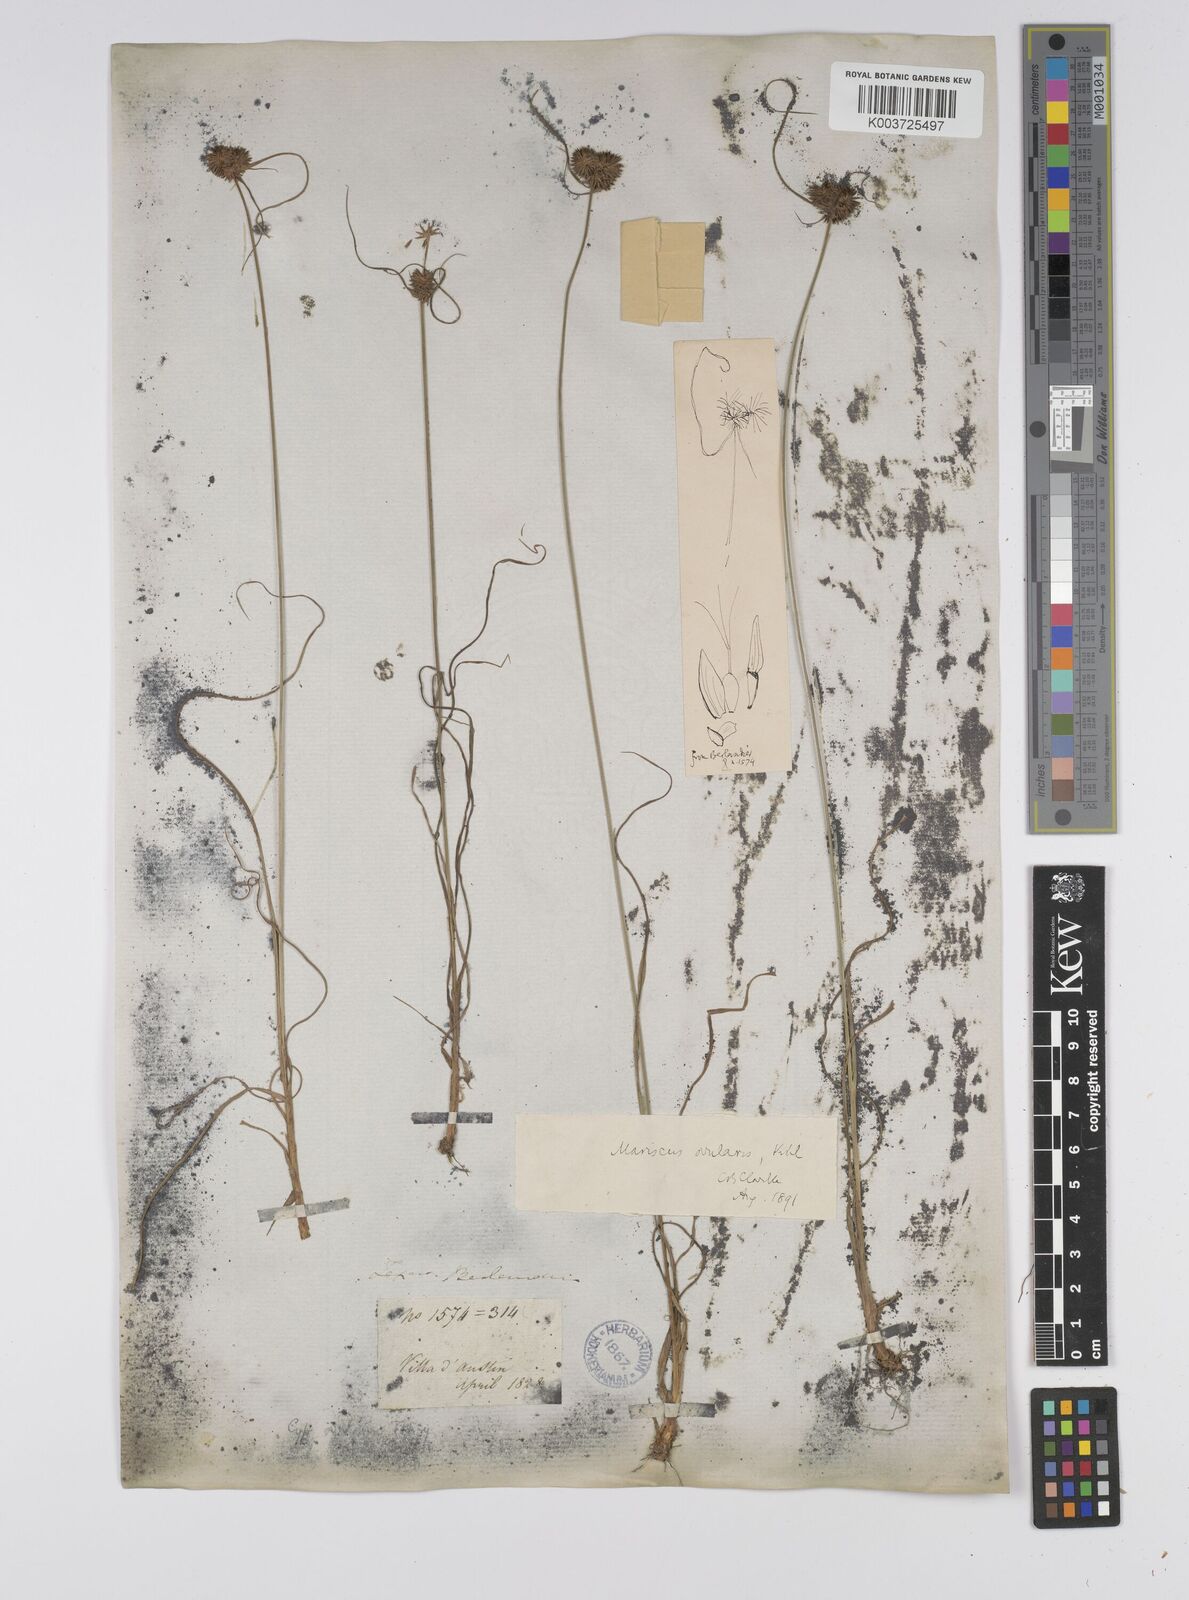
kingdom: Plantae
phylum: Tracheophyta
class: Liliopsida
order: Poales
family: Cyperaceae
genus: Cyperus
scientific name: Cyperus echinatus
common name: Teasel sedge
